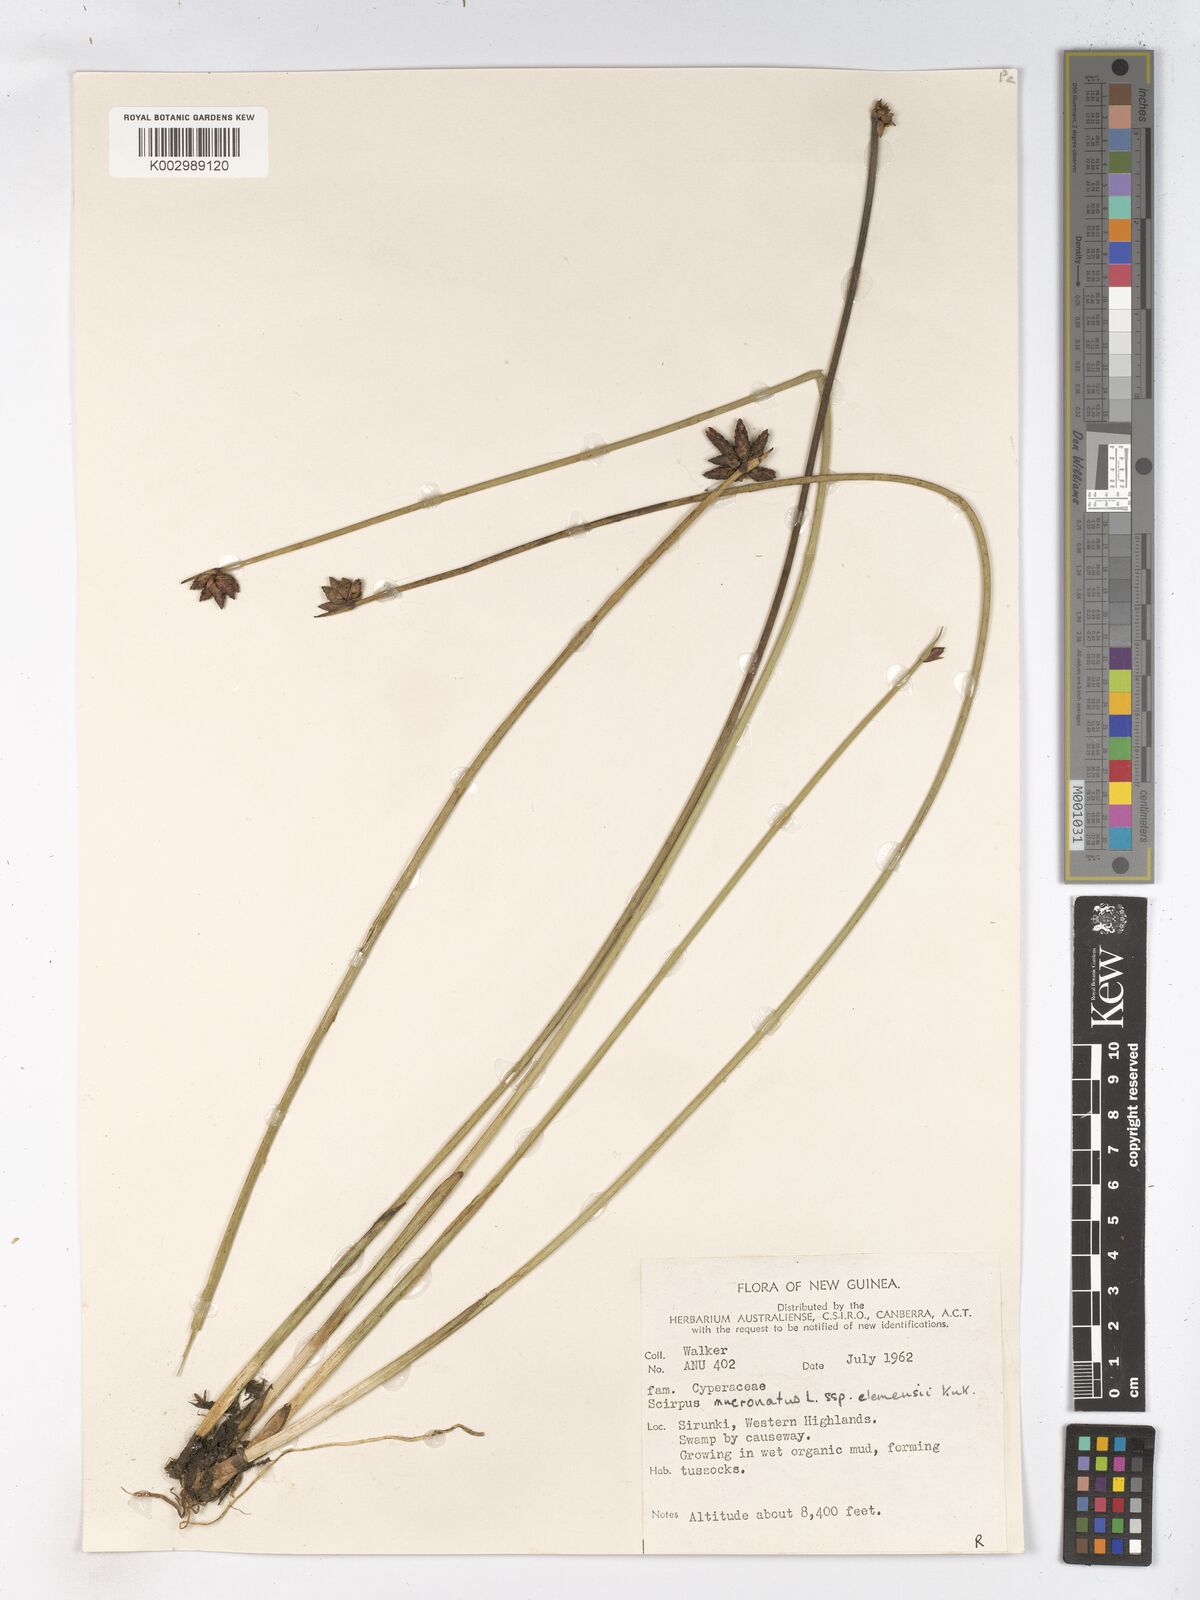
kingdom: Plantae
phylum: Tracheophyta
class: Liliopsida
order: Poales
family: Cyperaceae
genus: Schoenoplectiella
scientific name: Schoenoplectiella clemensiae
